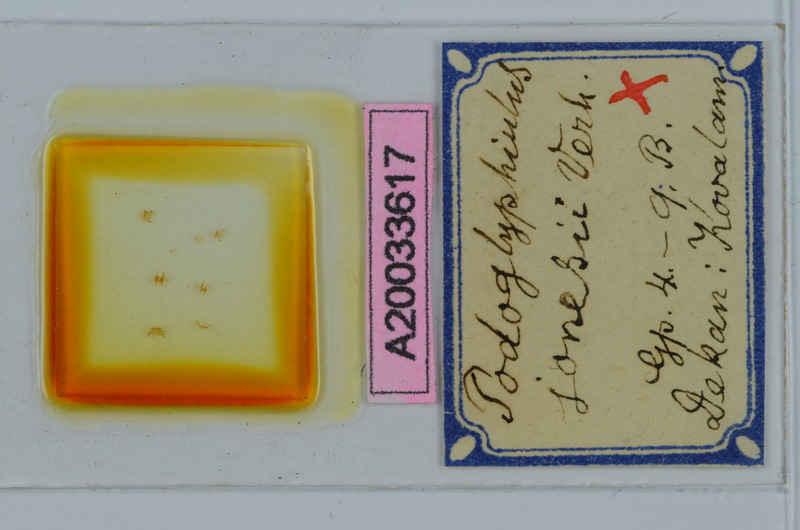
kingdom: Animalia
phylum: Arthropoda
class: Diplopoda
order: Spirostreptida
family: Cambalopsidae
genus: Podoglyphiulus
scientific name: Podoglyphiulus jonesii
